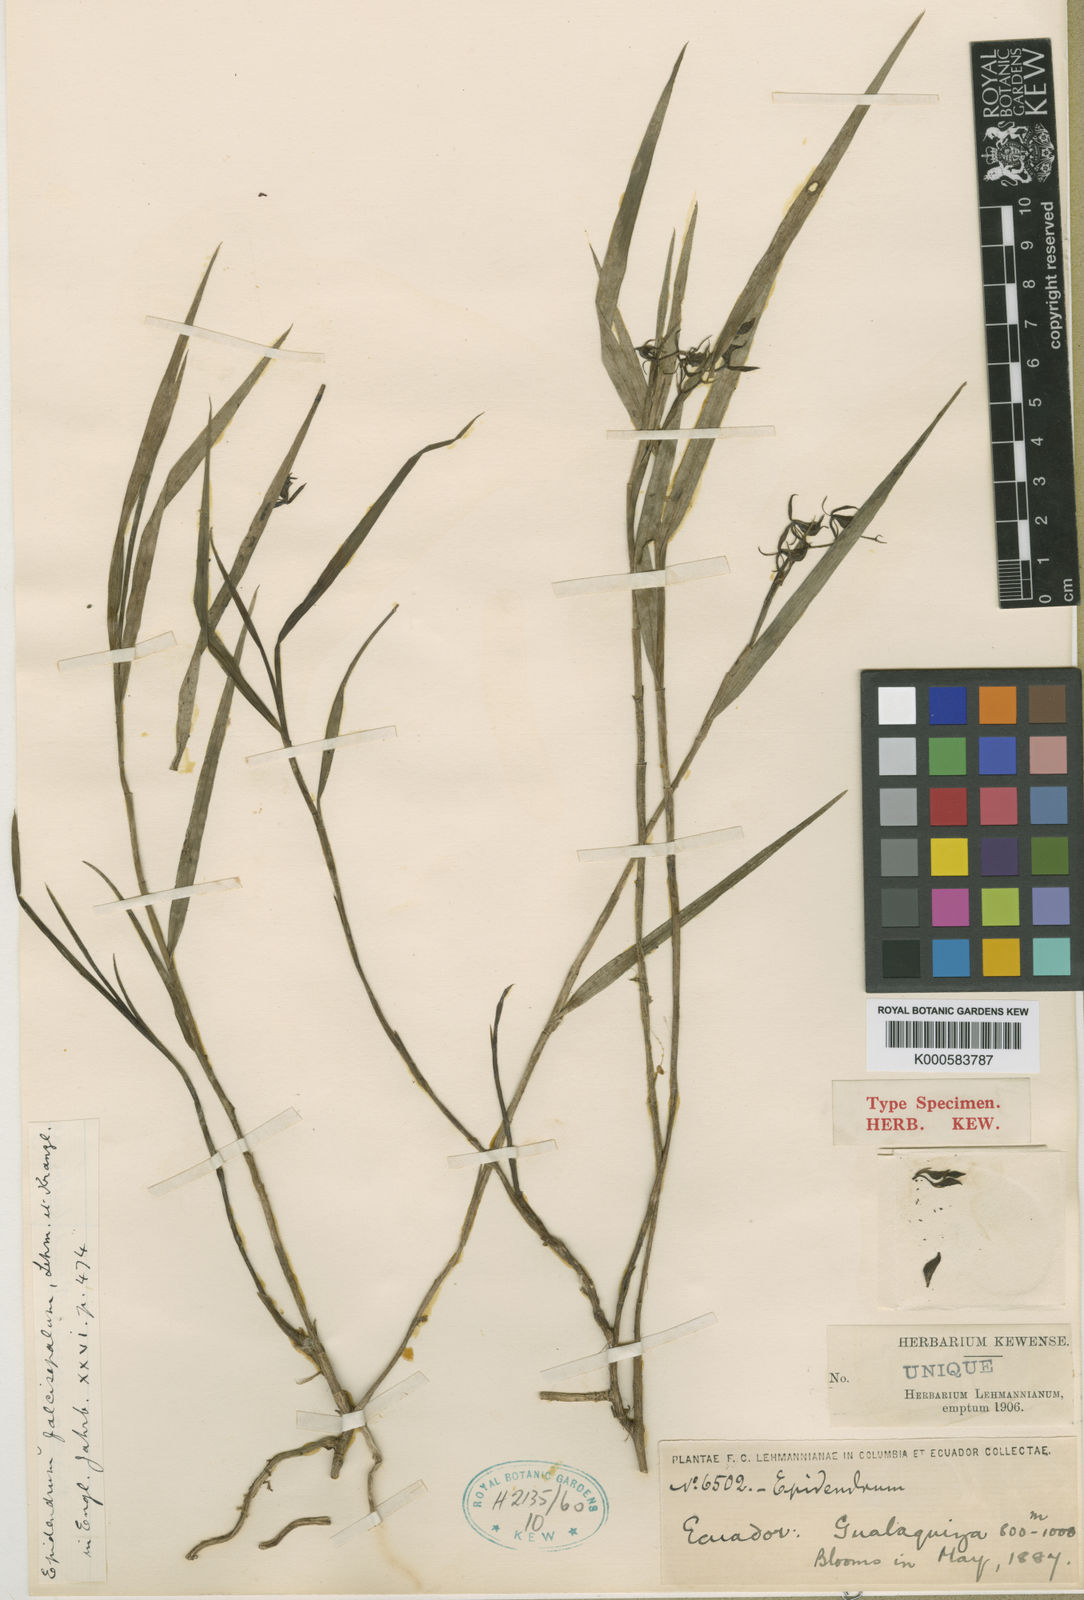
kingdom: Plantae
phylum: Tracheophyta
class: Liliopsida
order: Asparagales
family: Orchidaceae
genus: Epidendrum
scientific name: Epidendrum falcisepalum
